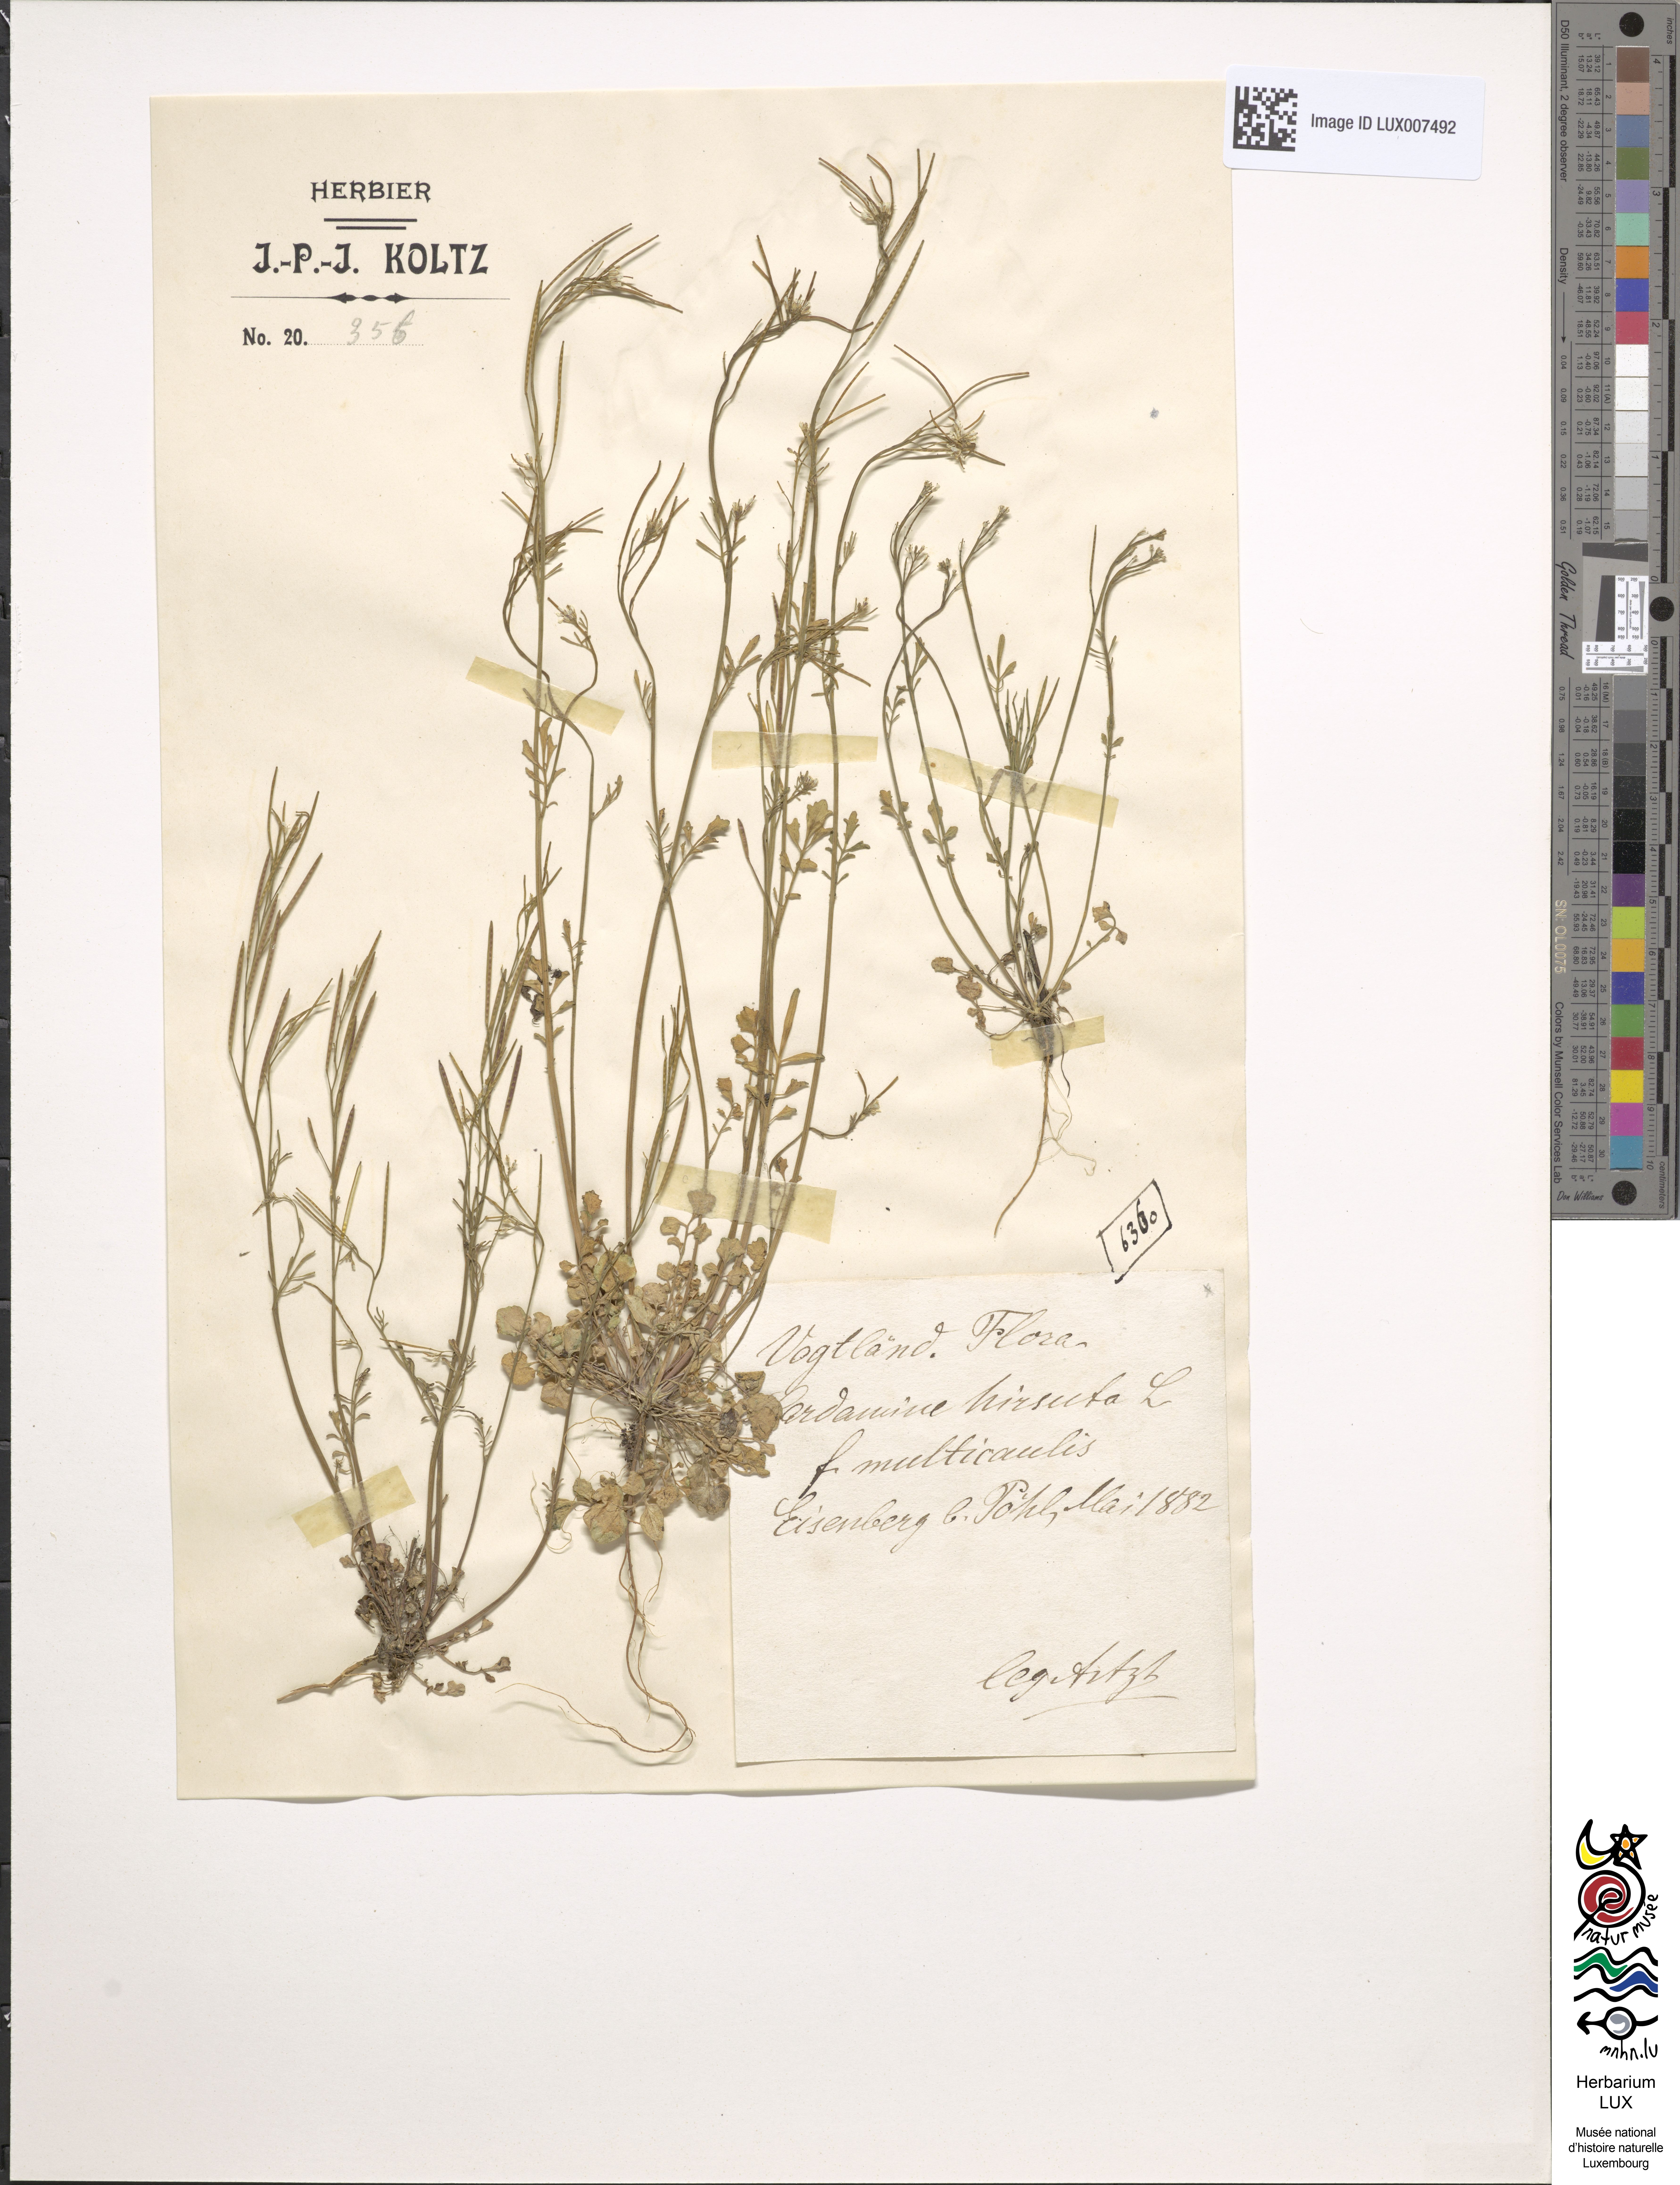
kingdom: Plantae
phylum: Tracheophyta
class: Magnoliopsida
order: Brassicales
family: Brassicaceae
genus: Cardamine
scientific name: Cardamine hirsuta
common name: Hairy bittercress
